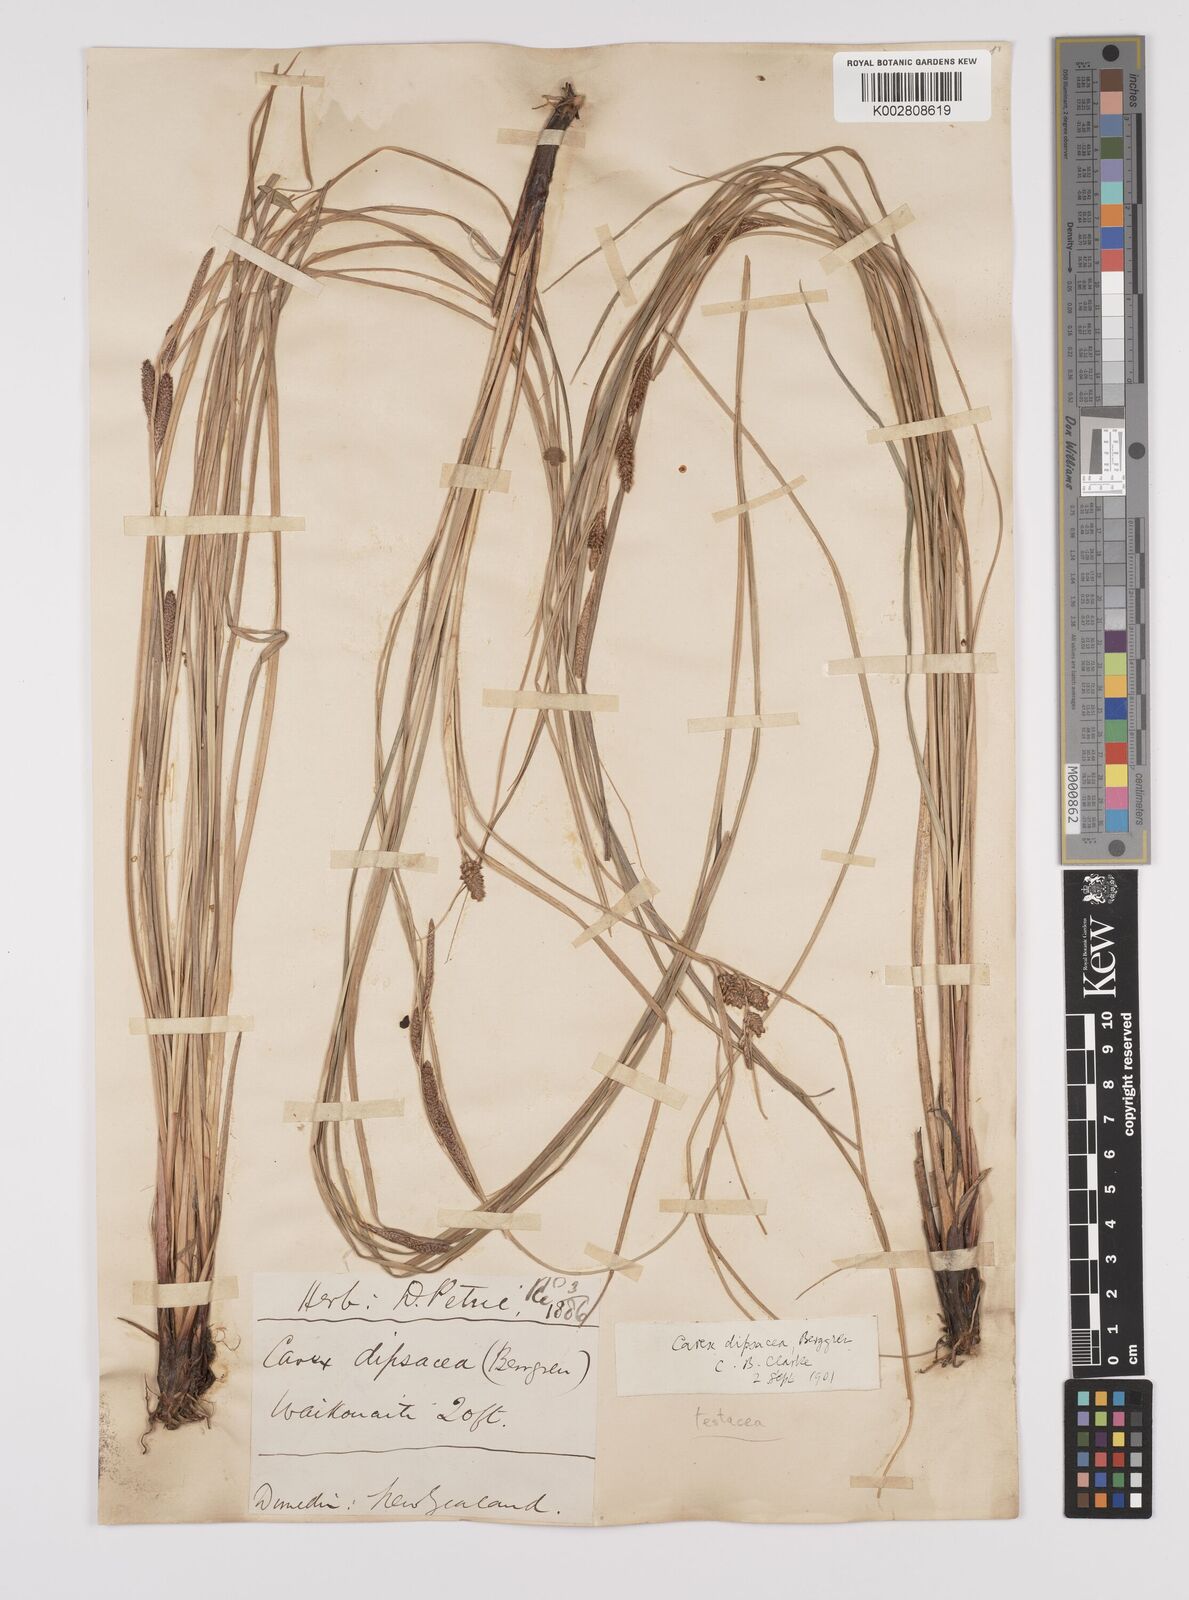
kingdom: Plantae
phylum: Tracheophyta
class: Liliopsida
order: Poales
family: Cyperaceae
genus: Carex
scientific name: Carex dipsacea
